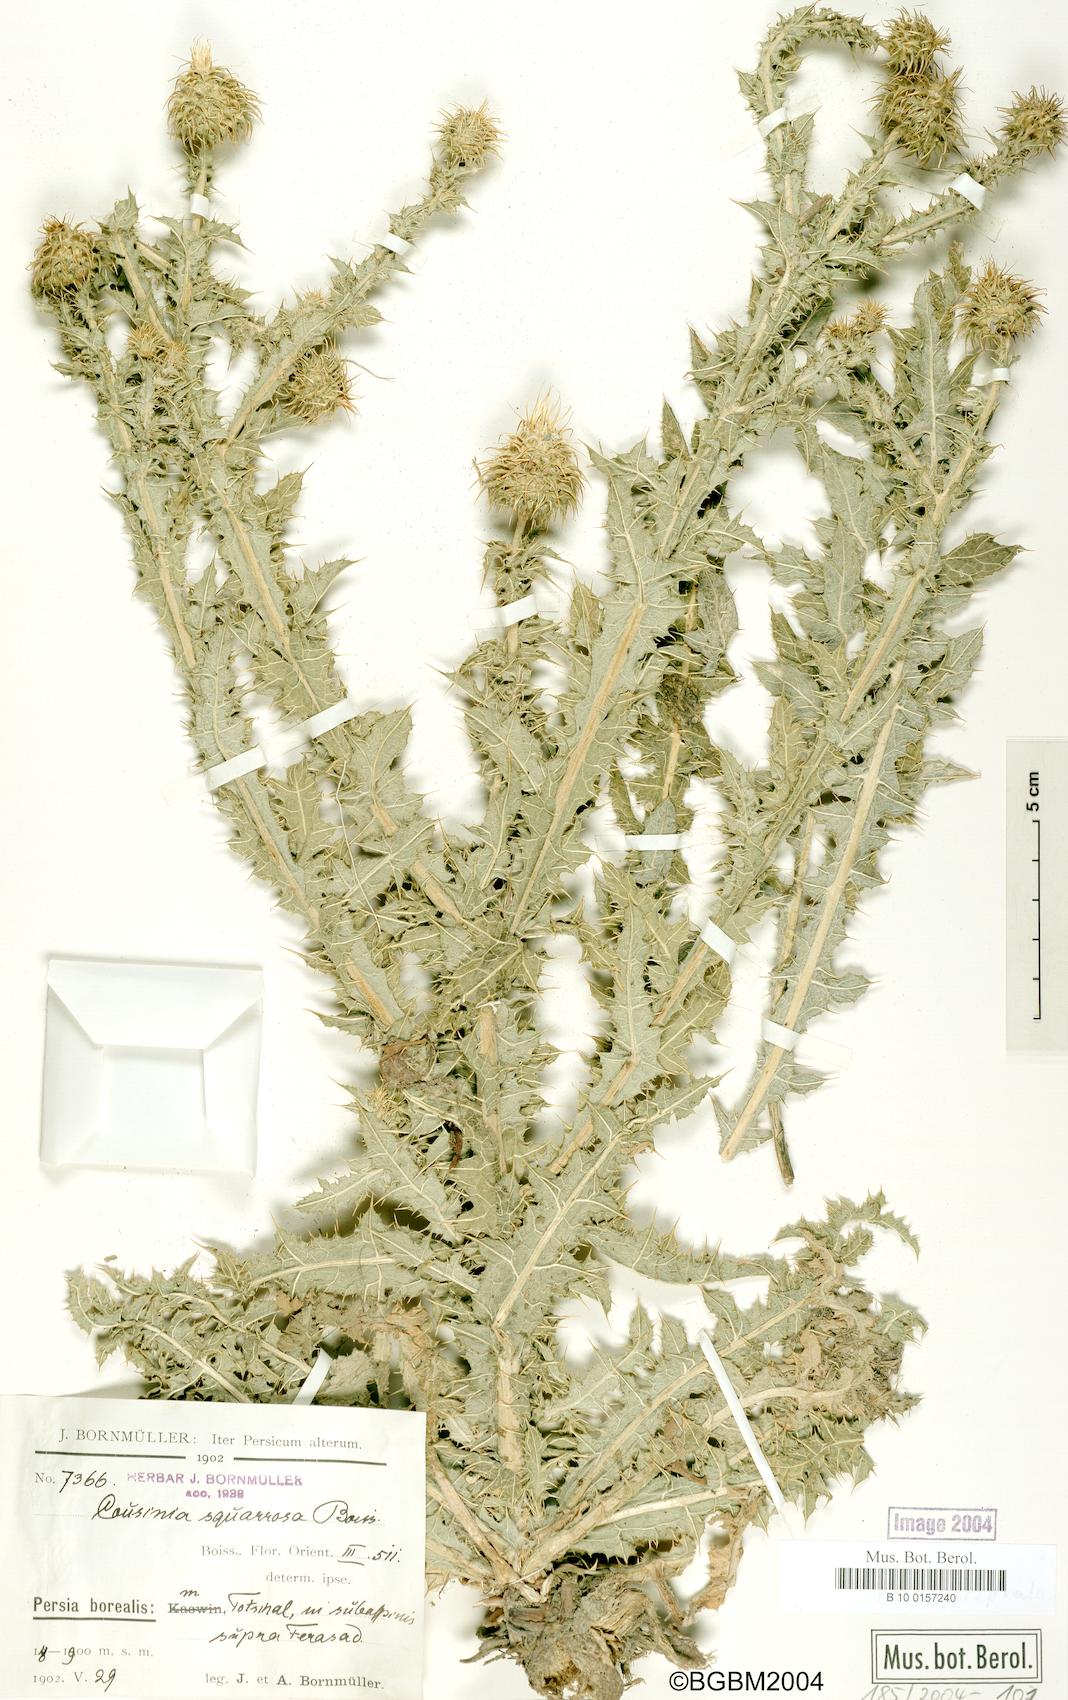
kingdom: Plantae
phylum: Tracheophyta
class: Magnoliopsida
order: Asterales
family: Asteraceae
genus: Cousinia
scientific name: Cousinia calocephala
